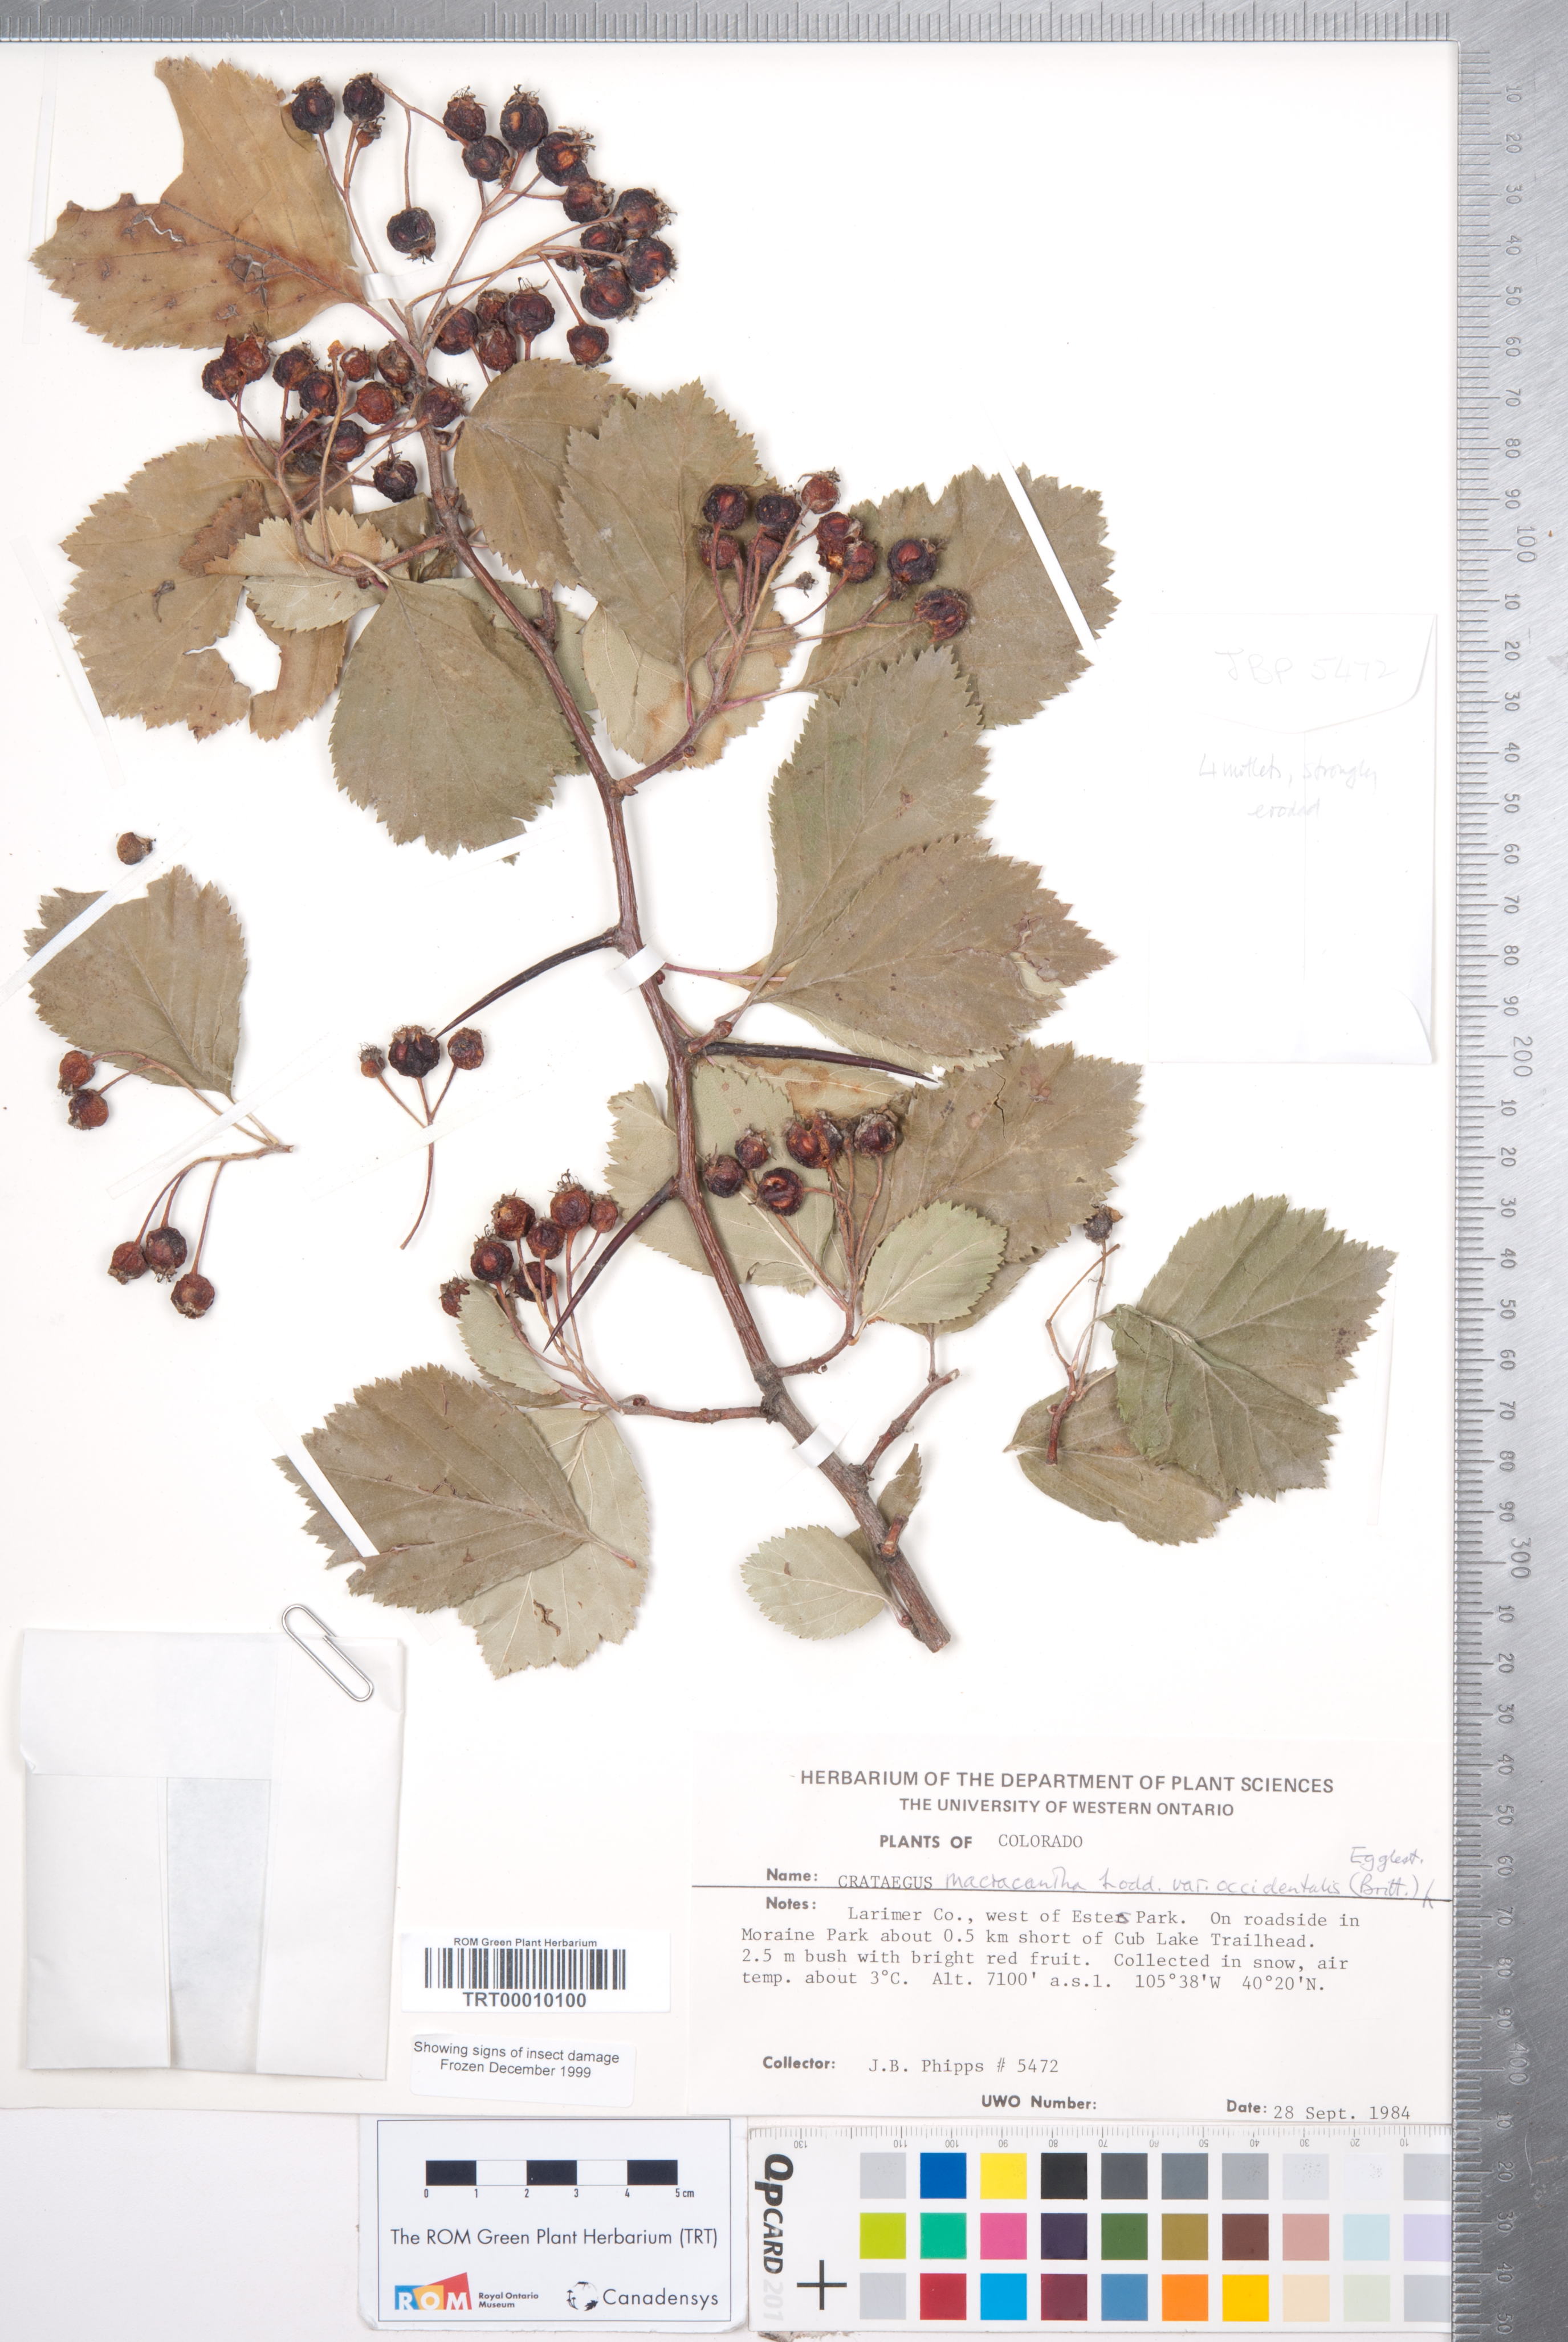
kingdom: Plantae
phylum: Tracheophyta
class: Magnoliopsida
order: Rosales
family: Rosaceae
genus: Crataegus
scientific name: Crataegus macracantha
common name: Large-thorn hawthorn
